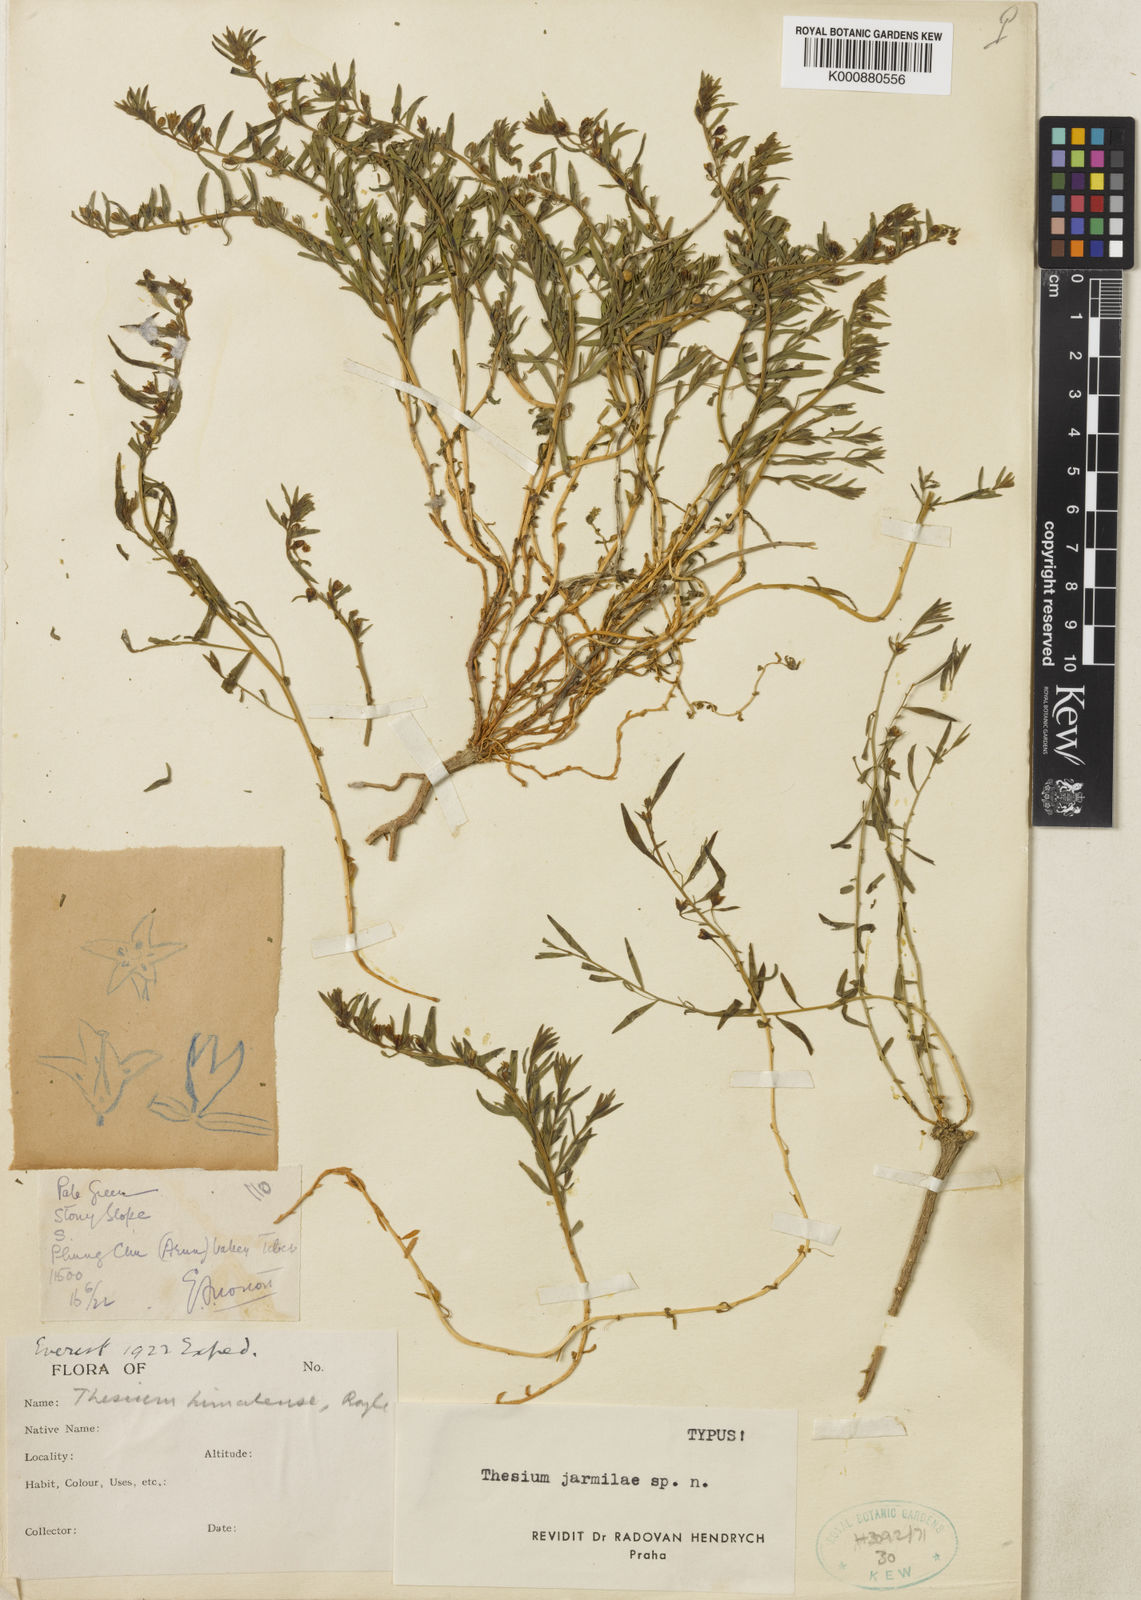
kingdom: Plantae
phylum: Tracheophyta
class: Magnoliopsida
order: Santalales
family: Thesiaceae
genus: Thesium
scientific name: Thesium jarmilae
